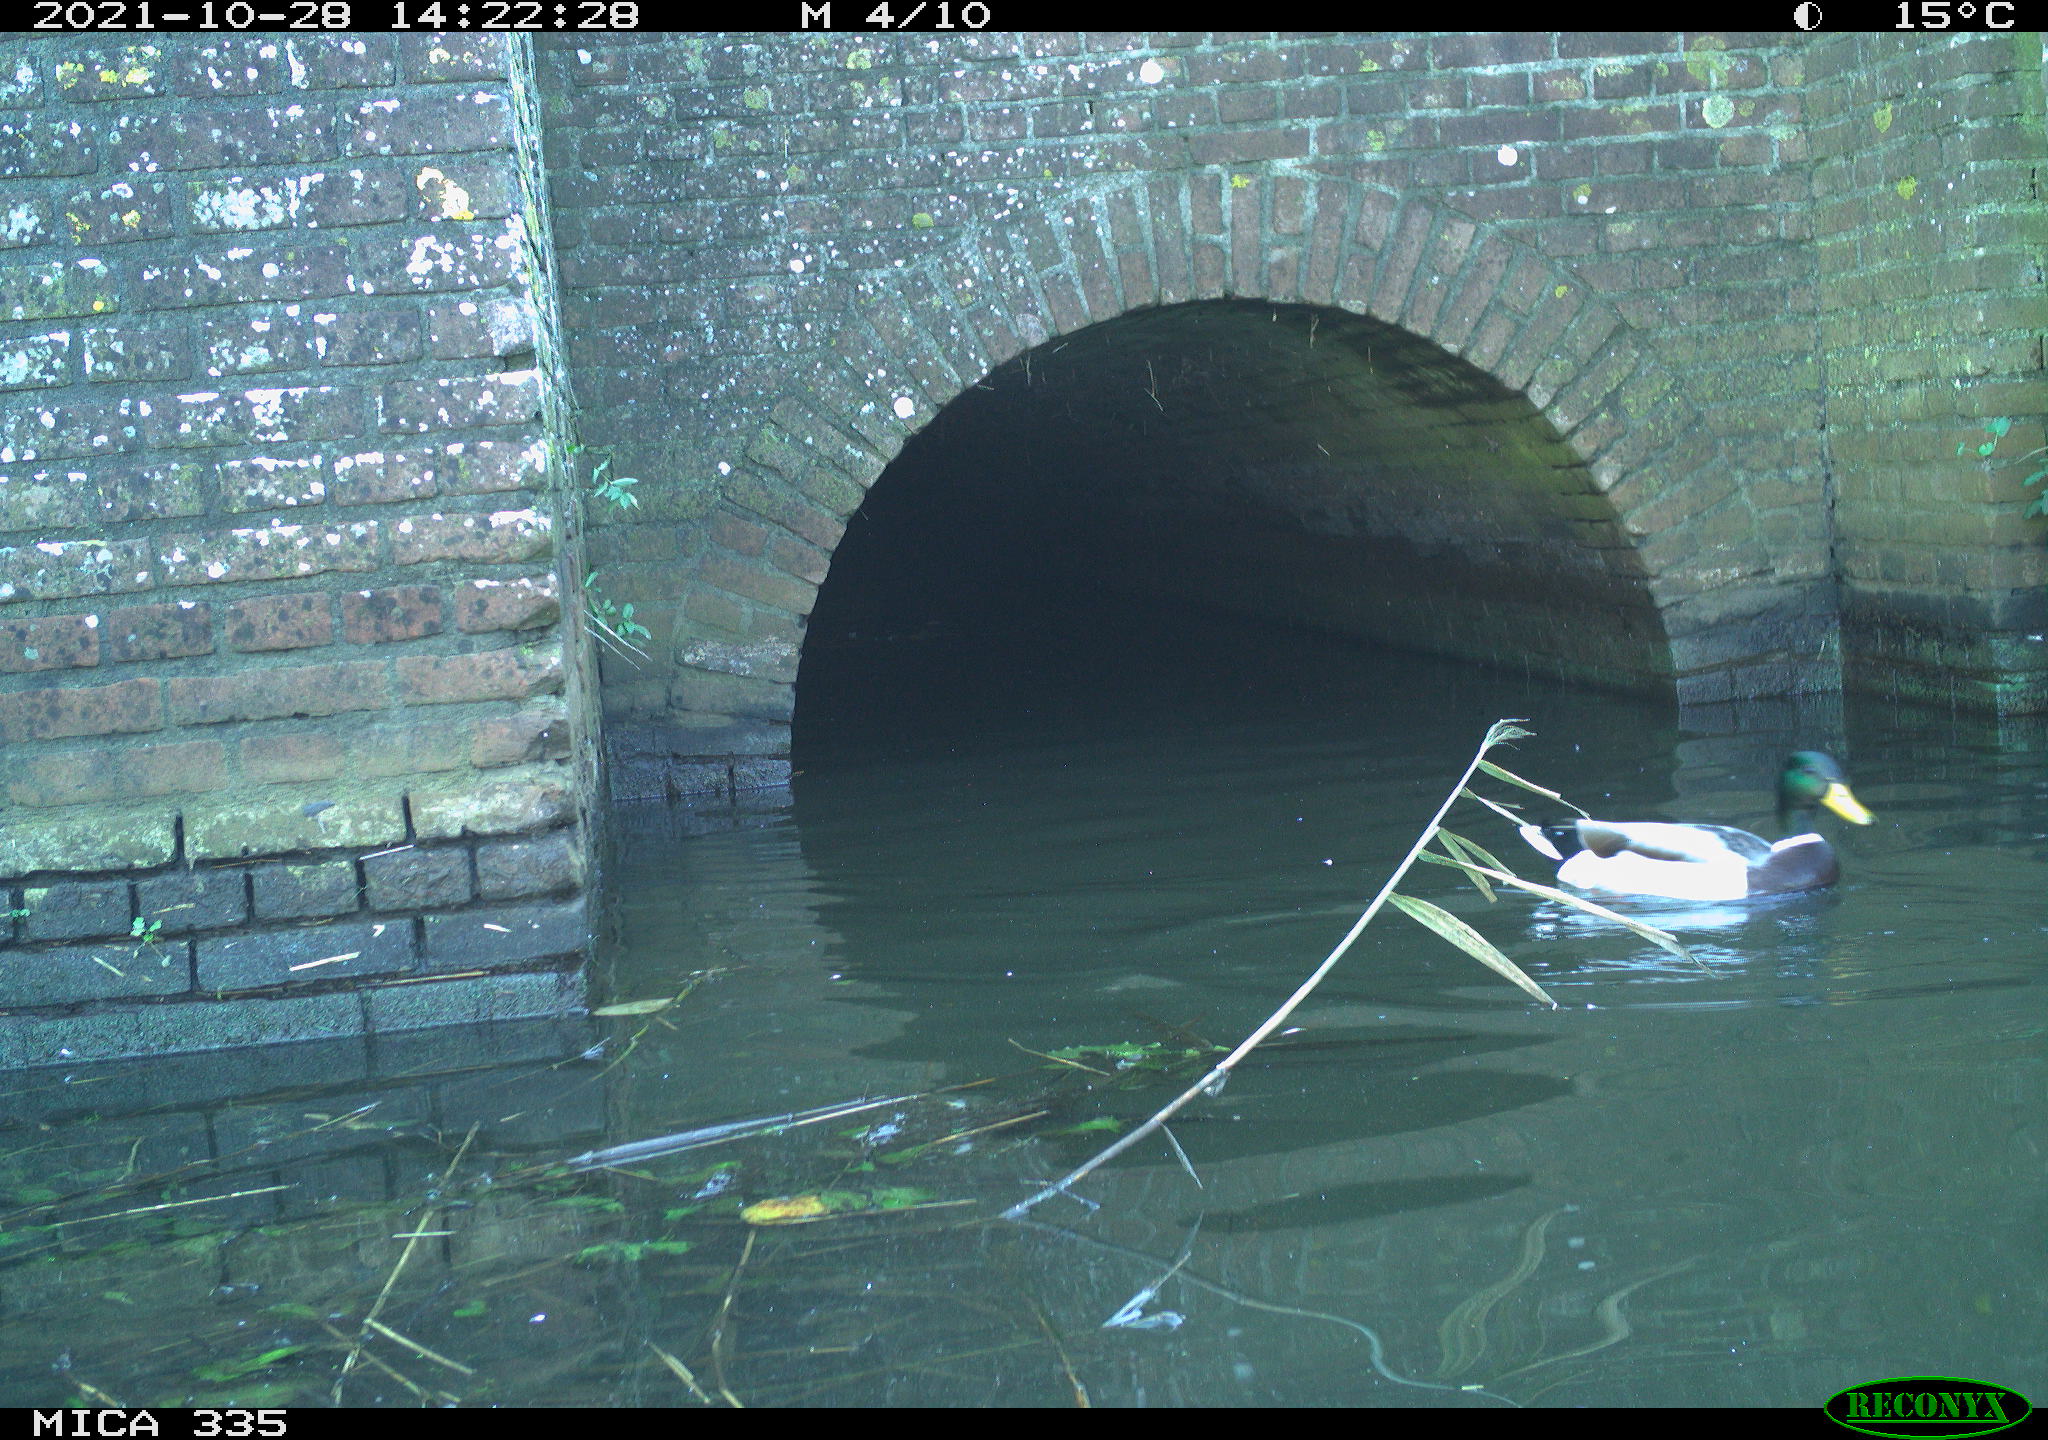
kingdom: Animalia
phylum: Chordata
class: Aves
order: Anseriformes
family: Anatidae
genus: Anas
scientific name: Anas platyrhynchos
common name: Mallard
